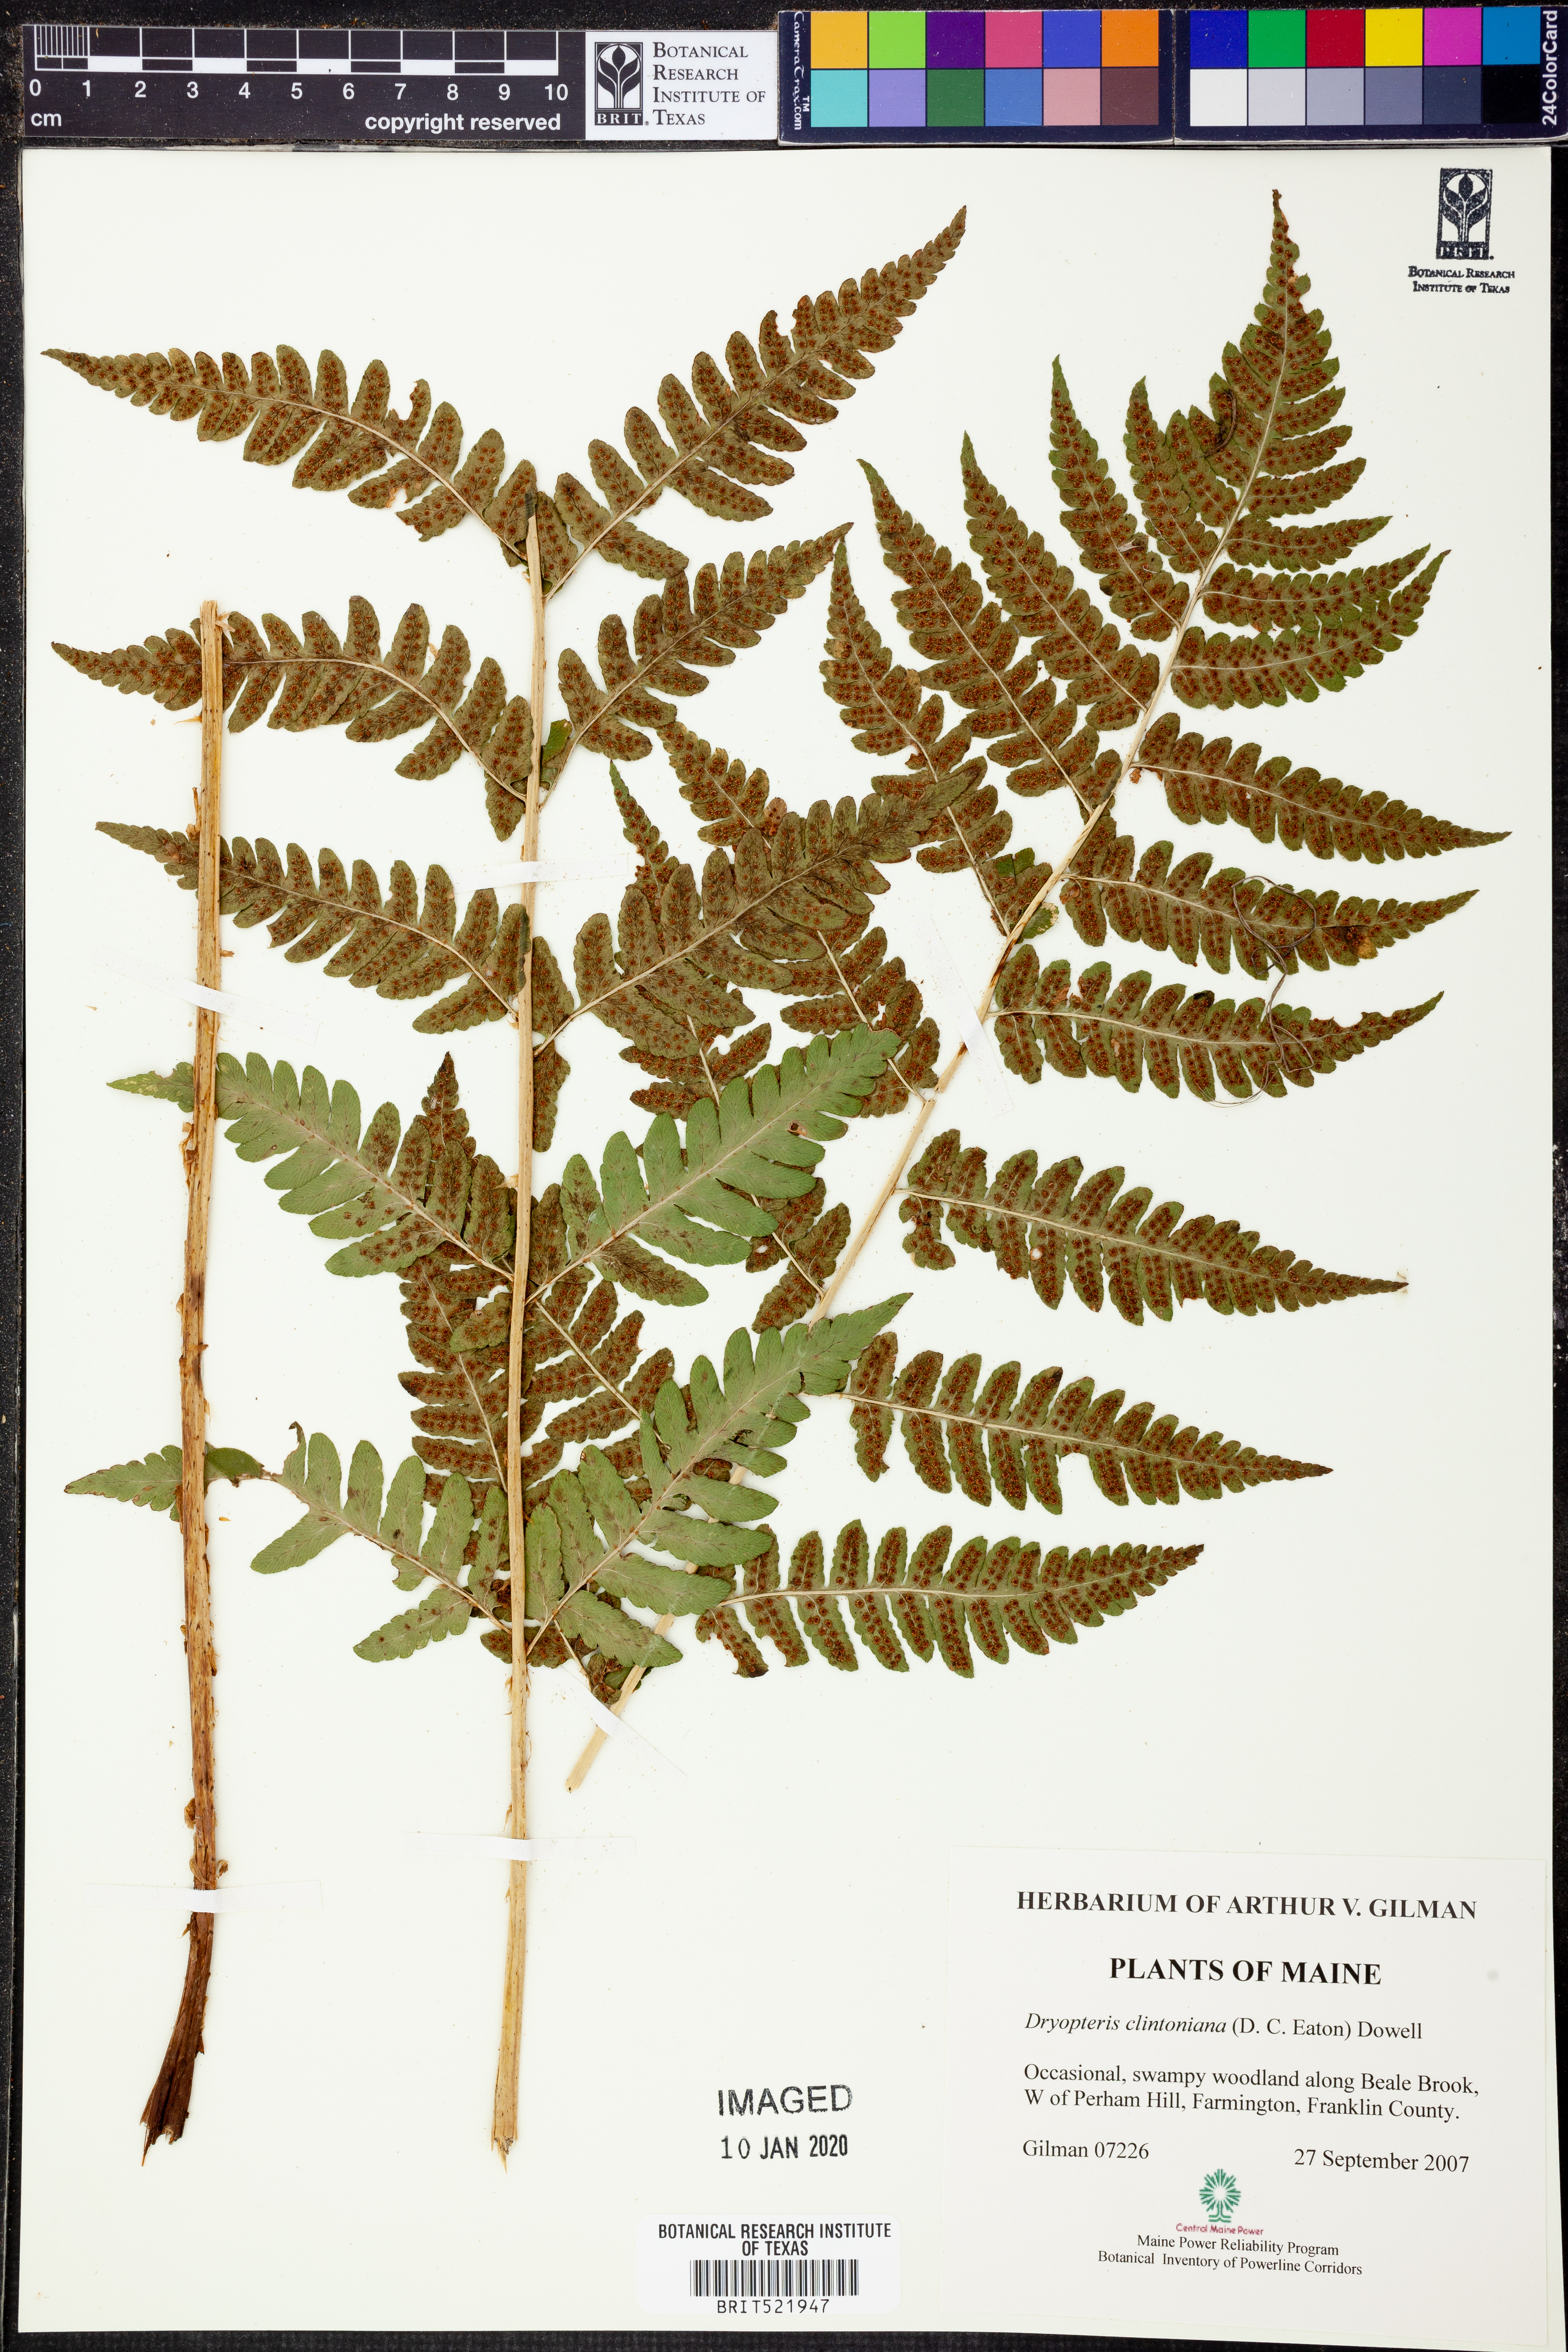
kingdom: Plantae
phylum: Tracheophyta
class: Polypodiopsida
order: Polypodiales
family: Dryopteridaceae
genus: Dryopteris
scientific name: Dryopteris clintoniana
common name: Clinton's wood fern
